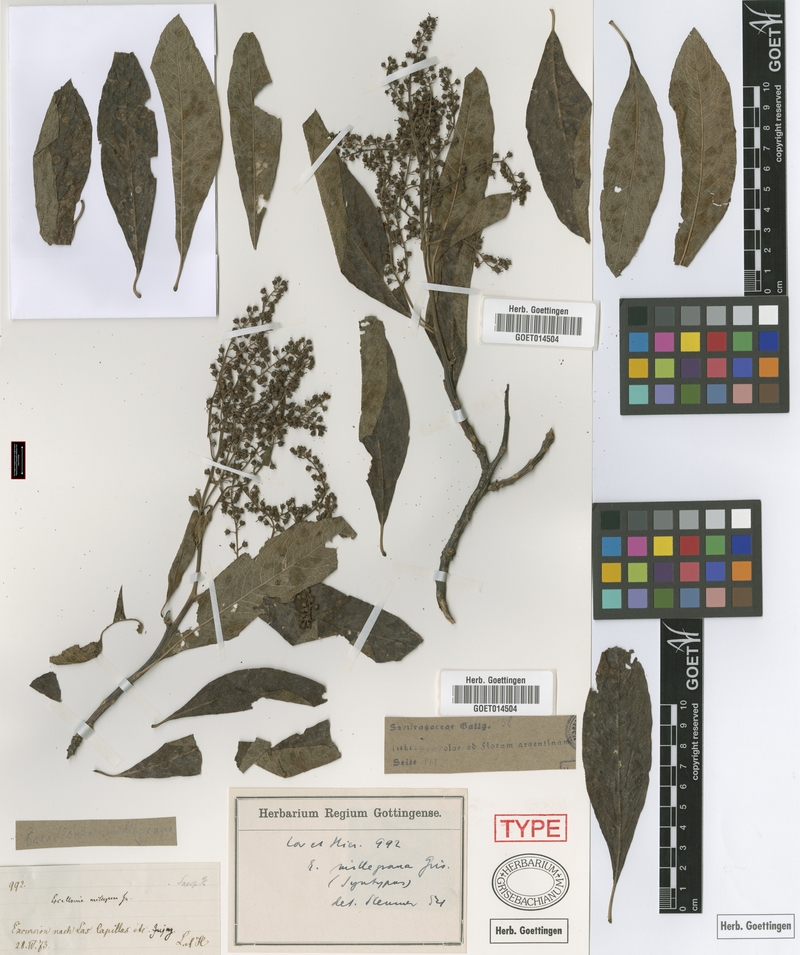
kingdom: Plantae
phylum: Tracheophyta
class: Magnoliopsida
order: Escalloniales
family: Escalloniaceae
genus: Escallonia
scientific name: Escallonia millegrana
